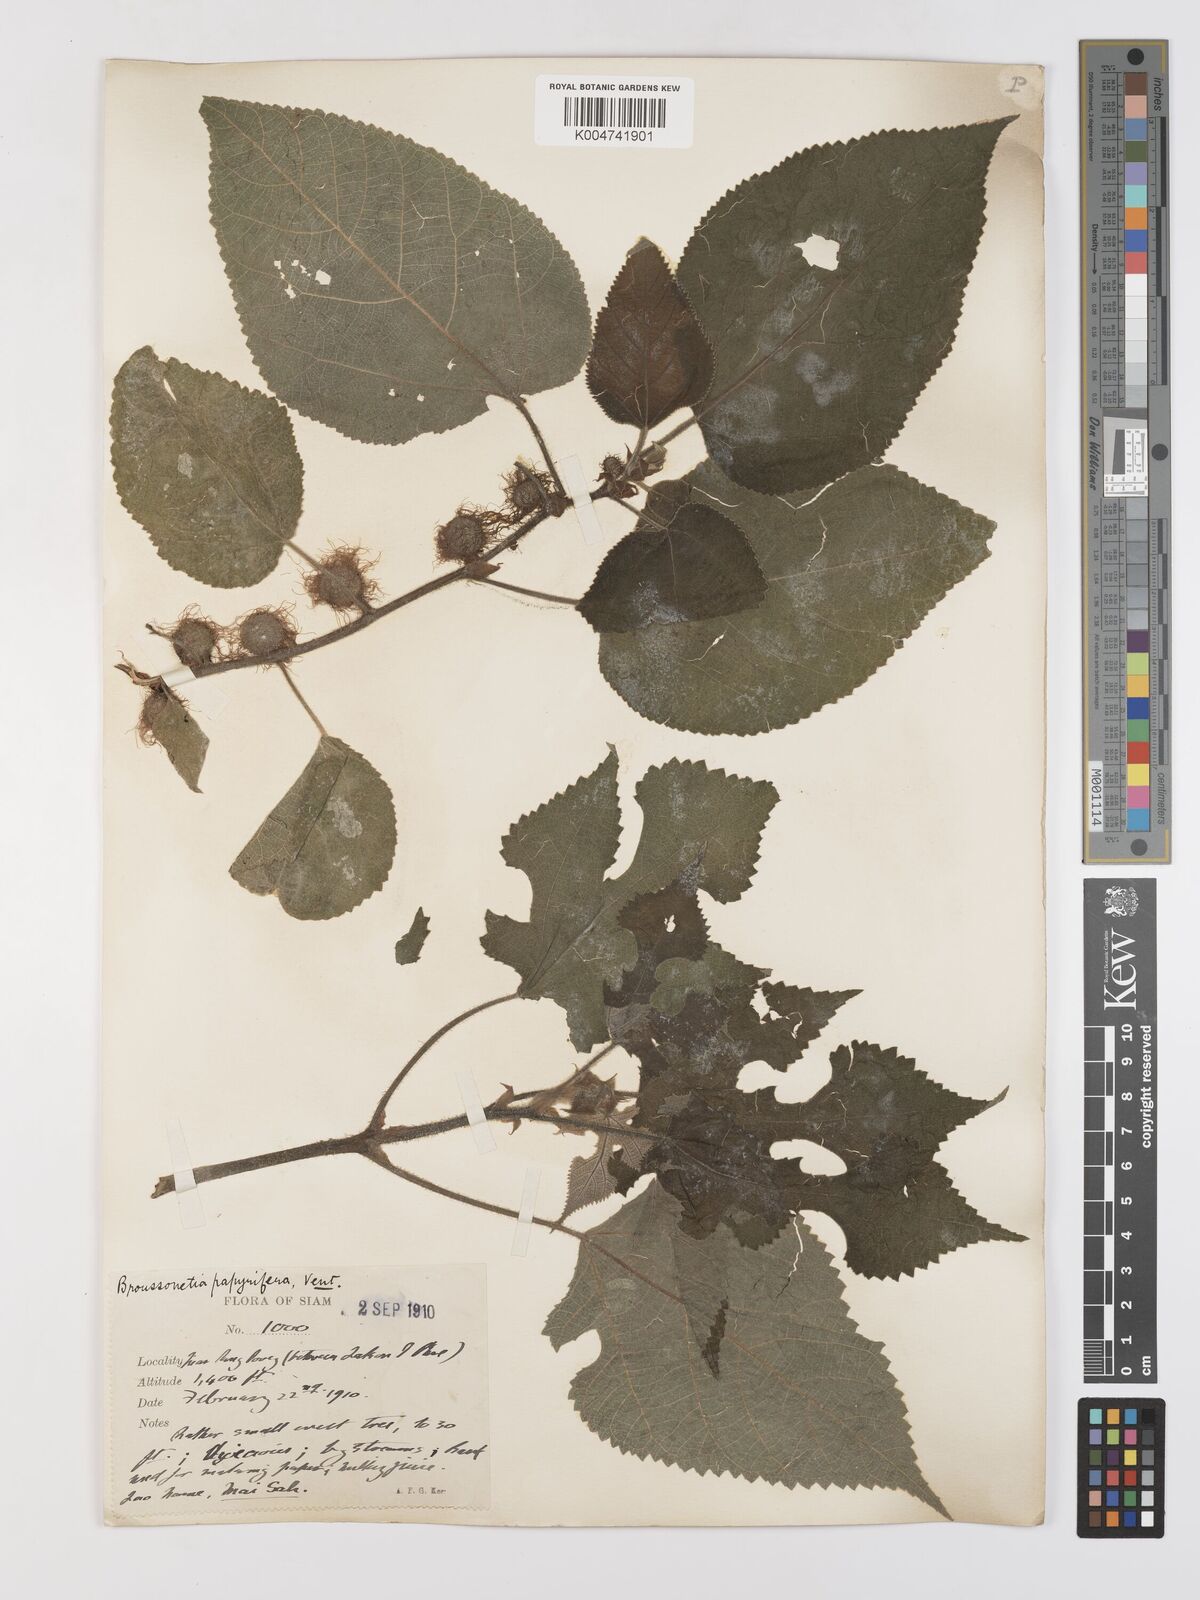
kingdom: Plantae
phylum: Tracheophyta
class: Magnoliopsida
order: Rosales
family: Moraceae
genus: Broussonetia
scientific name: Broussonetia papyrifera
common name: Paper mulberry
